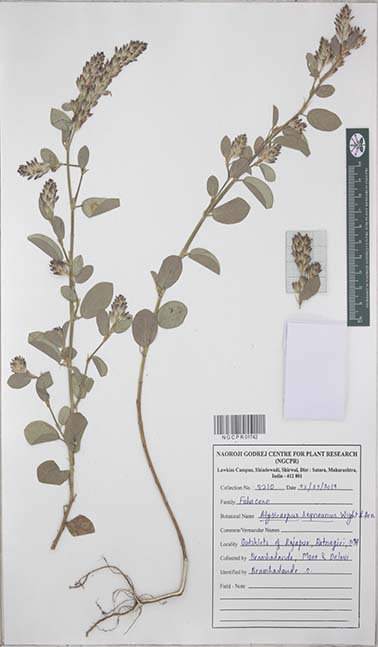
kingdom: Plantae
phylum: Tracheophyta
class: Magnoliopsida
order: Fabales
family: Fabaceae
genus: Alysicarpus
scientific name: Alysicarpus heyneanus
